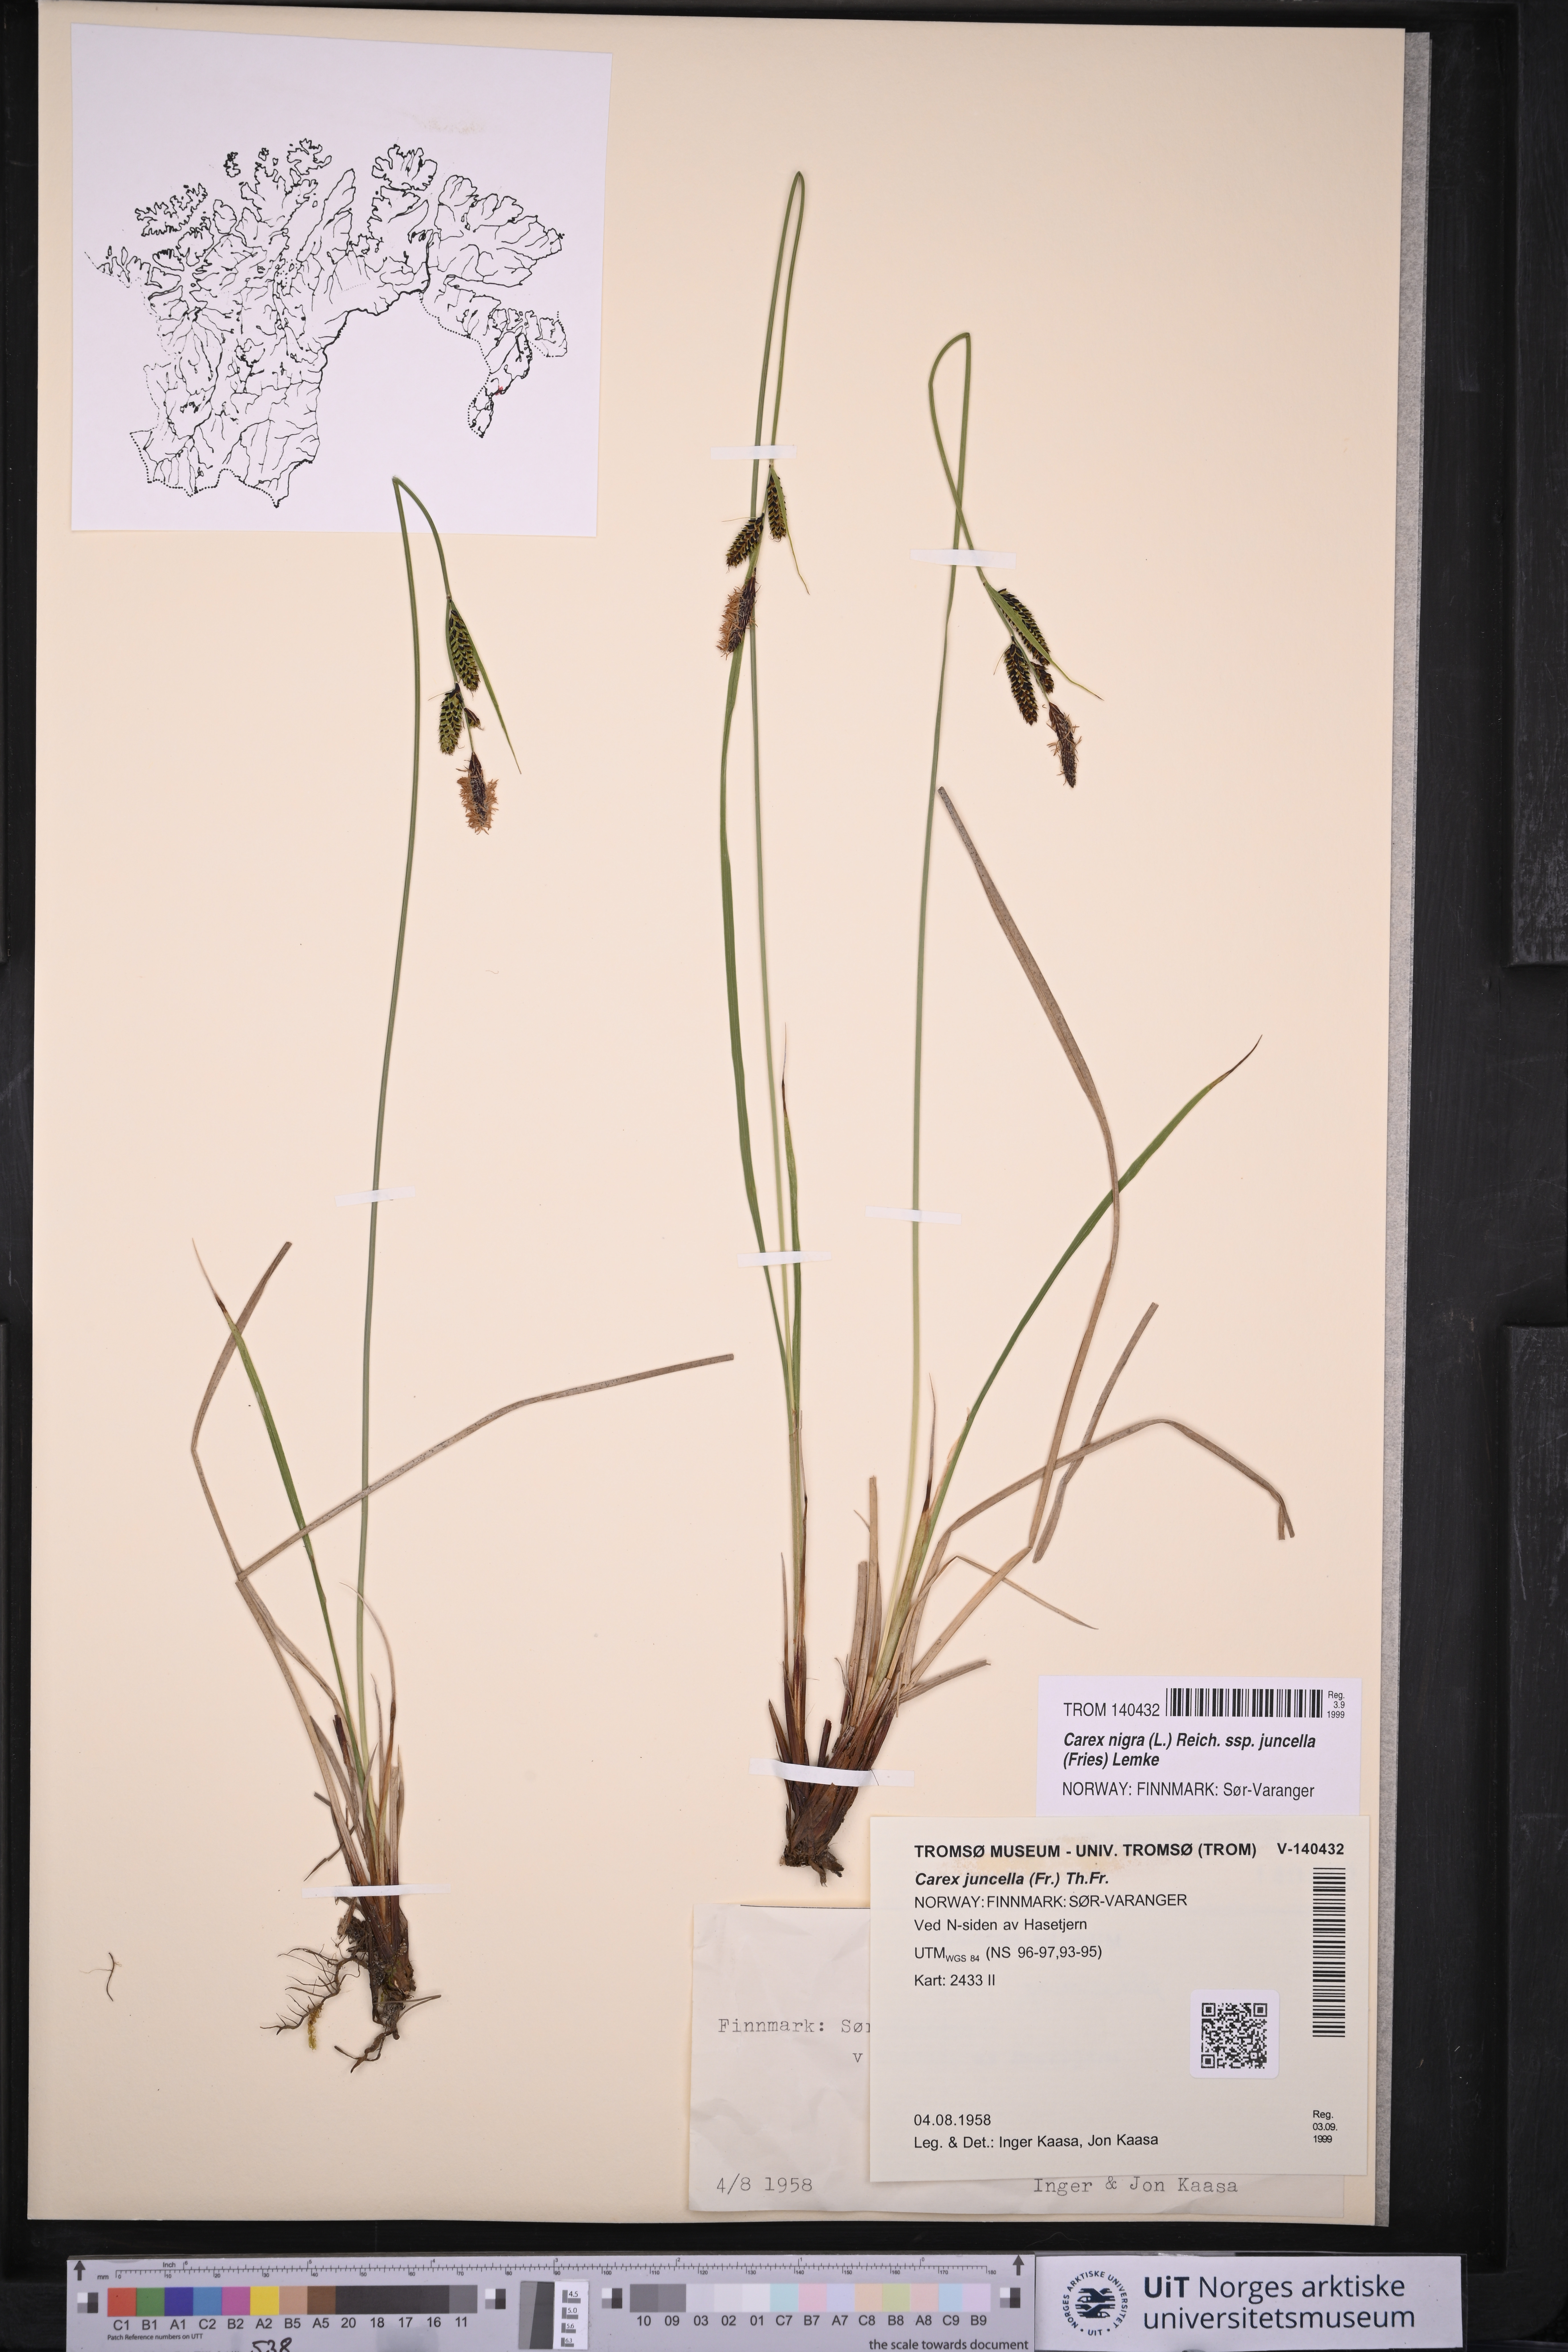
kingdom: Plantae
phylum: Tracheophyta
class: Liliopsida
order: Poales
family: Cyperaceae
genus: Carex
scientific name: Carex nigra
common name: Common sedge
